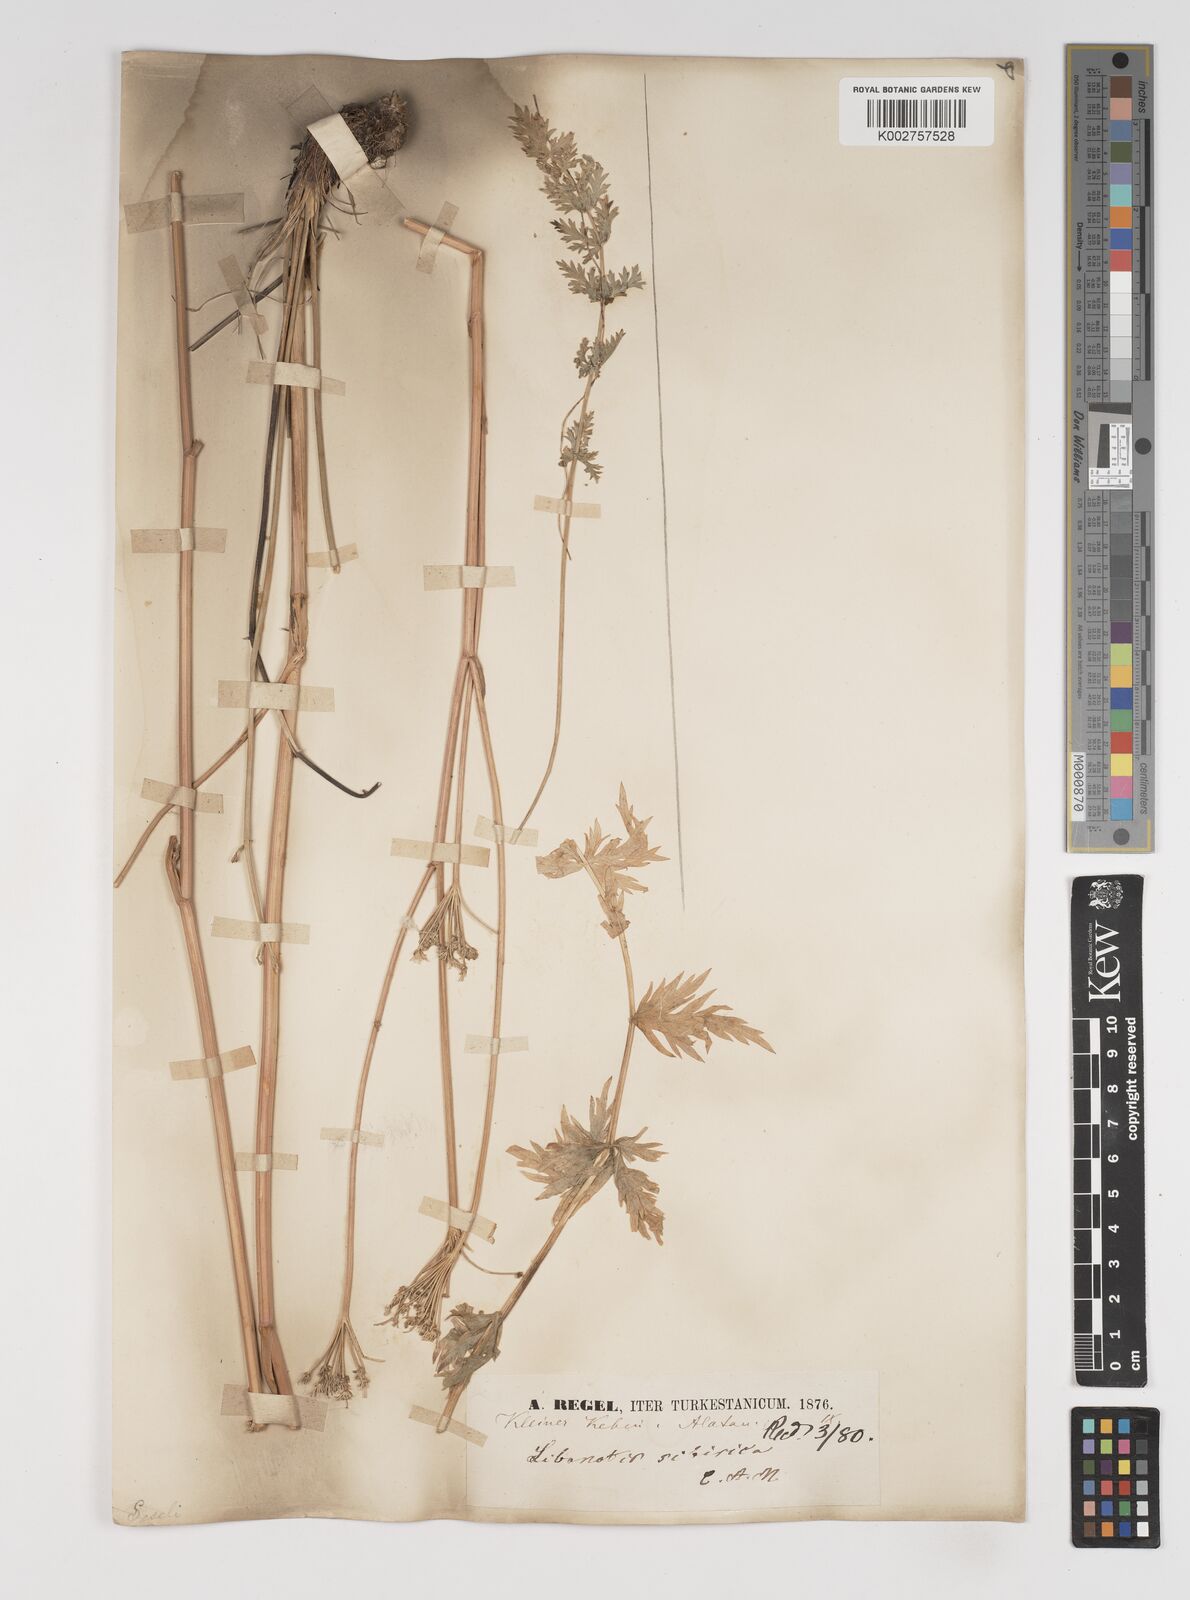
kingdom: Plantae
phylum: Tracheophyta
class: Magnoliopsida
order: Apiales
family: Apiaceae
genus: Seseli
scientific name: Seseli libanotis
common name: Mooncarrot
